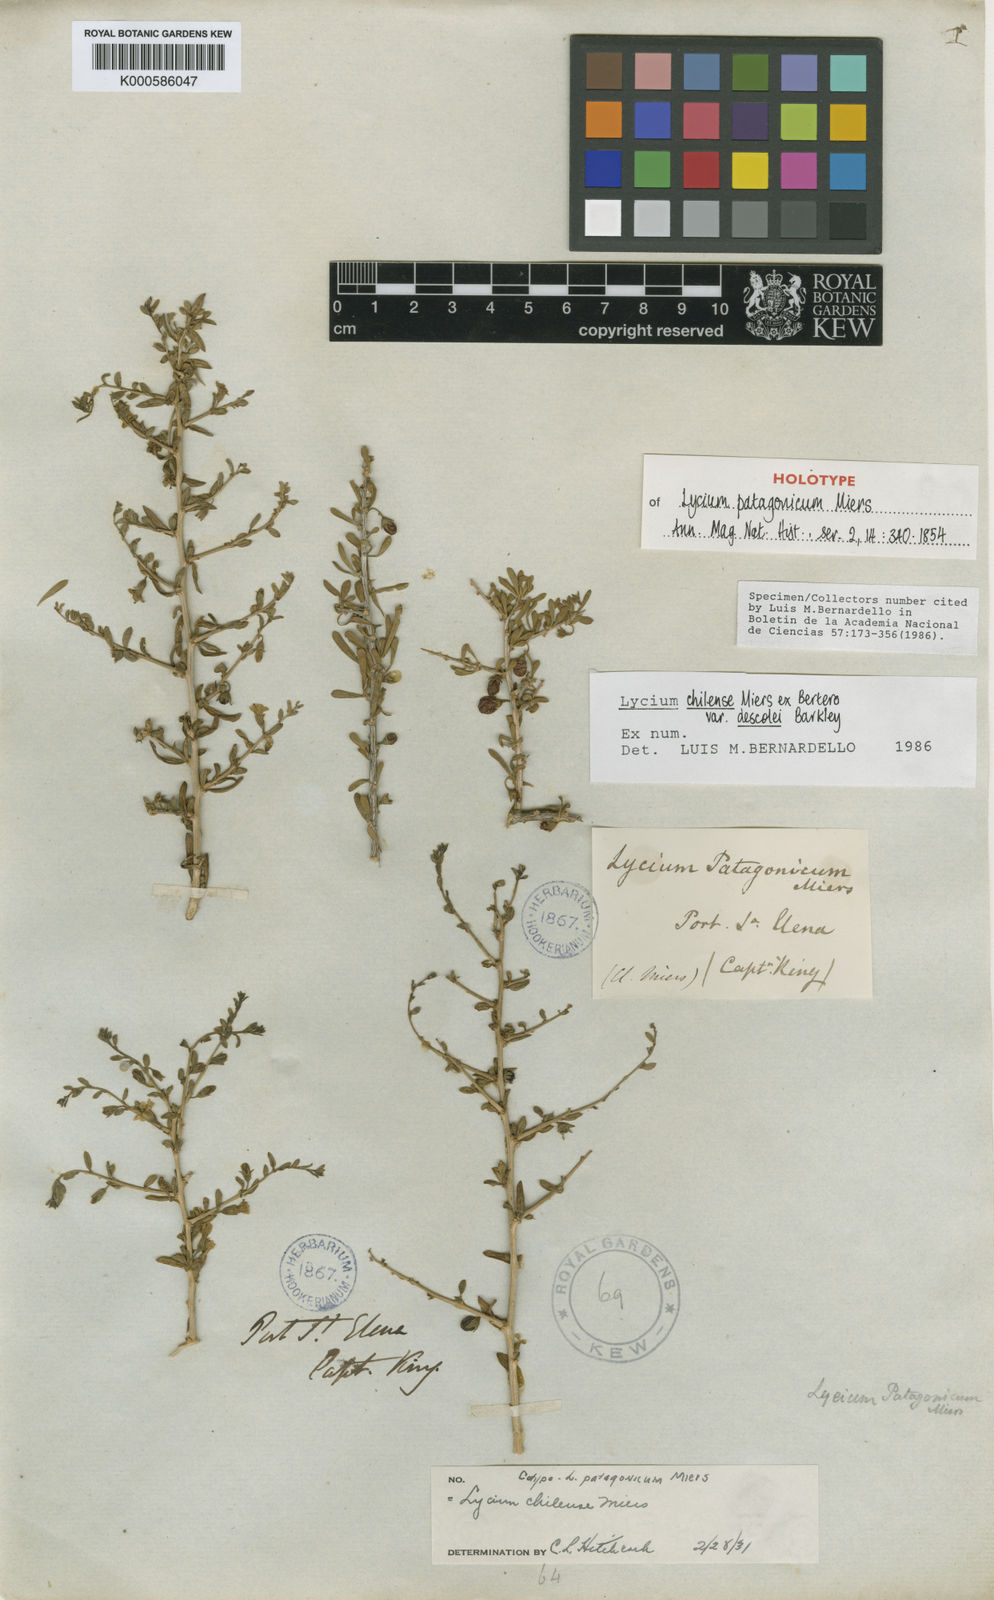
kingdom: Plantae
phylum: Tracheophyta
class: Magnoliopsida
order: Solanales
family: Solanaceae
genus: Lycium
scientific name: Lycium chilense
